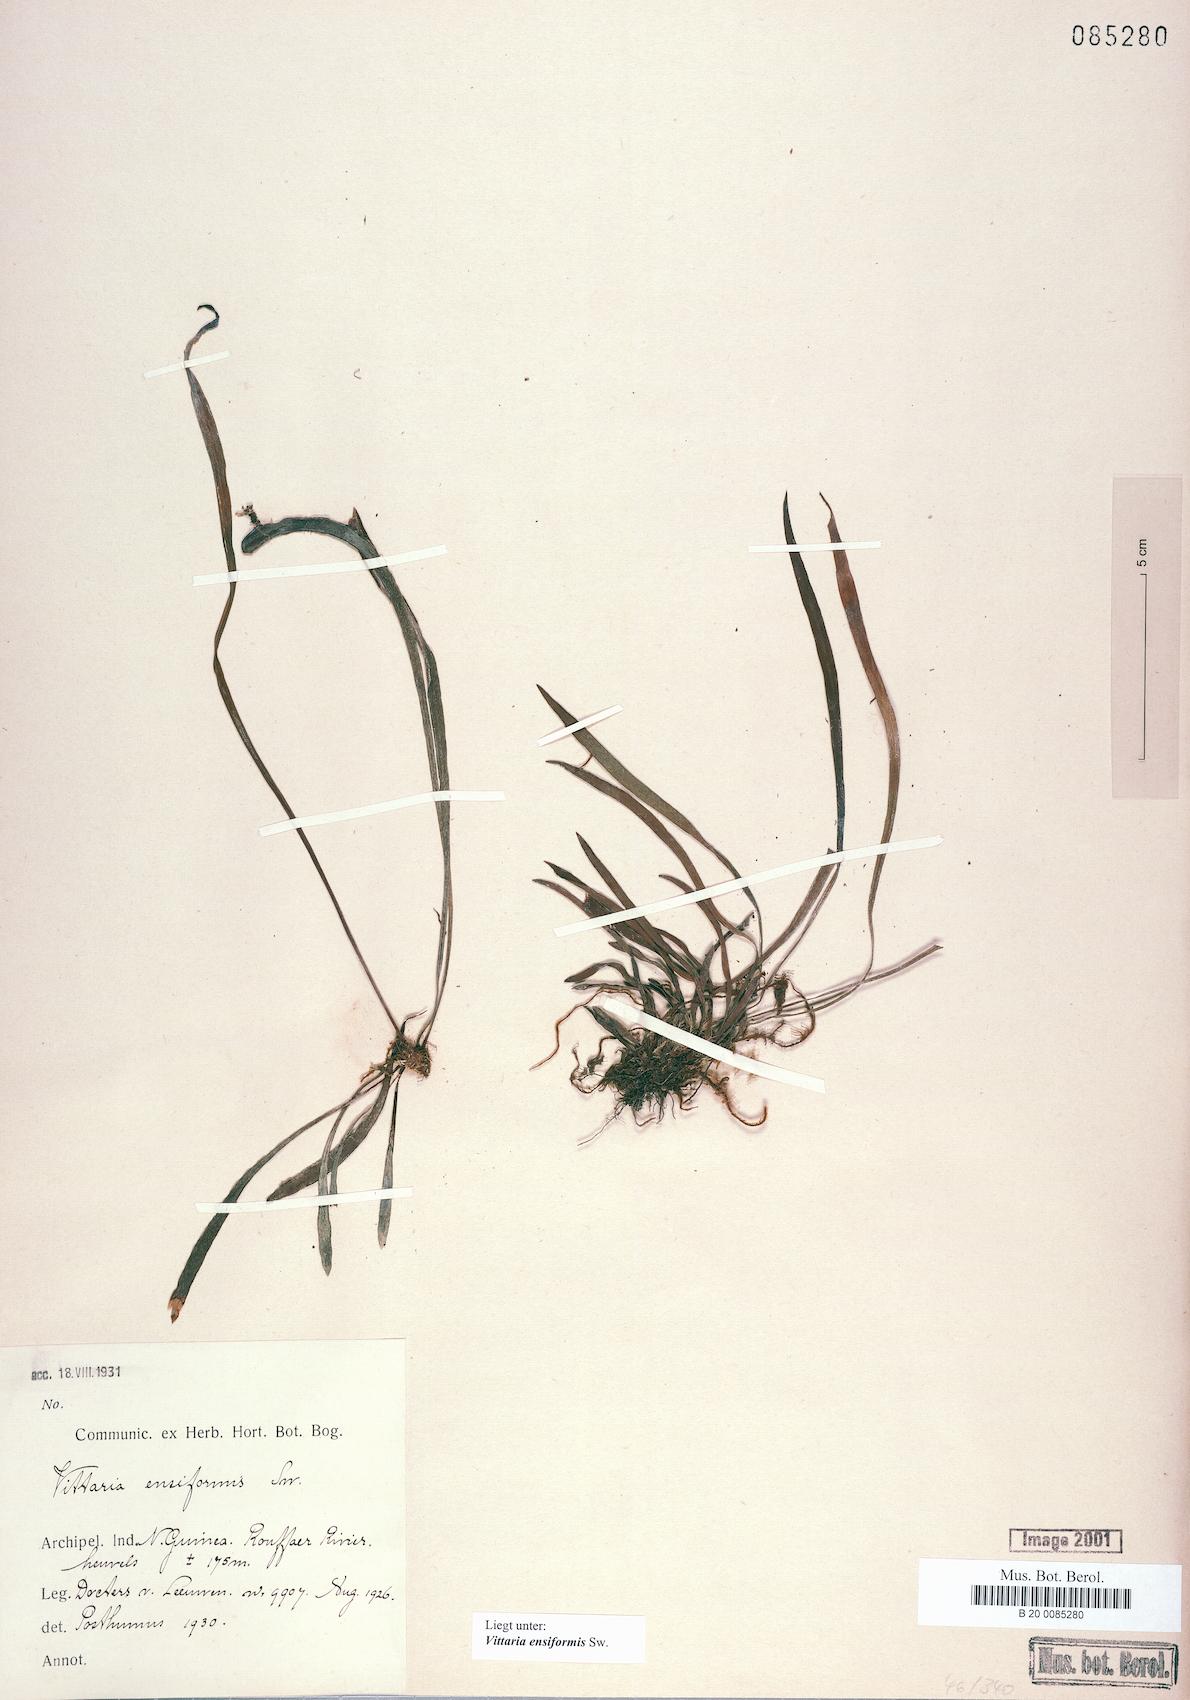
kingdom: Plantae
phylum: Tracheophyta
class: Polypodiopsida
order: Polypodiales
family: Pteridaceae
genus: Haplopteris
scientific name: Haplopteris ensiformis
